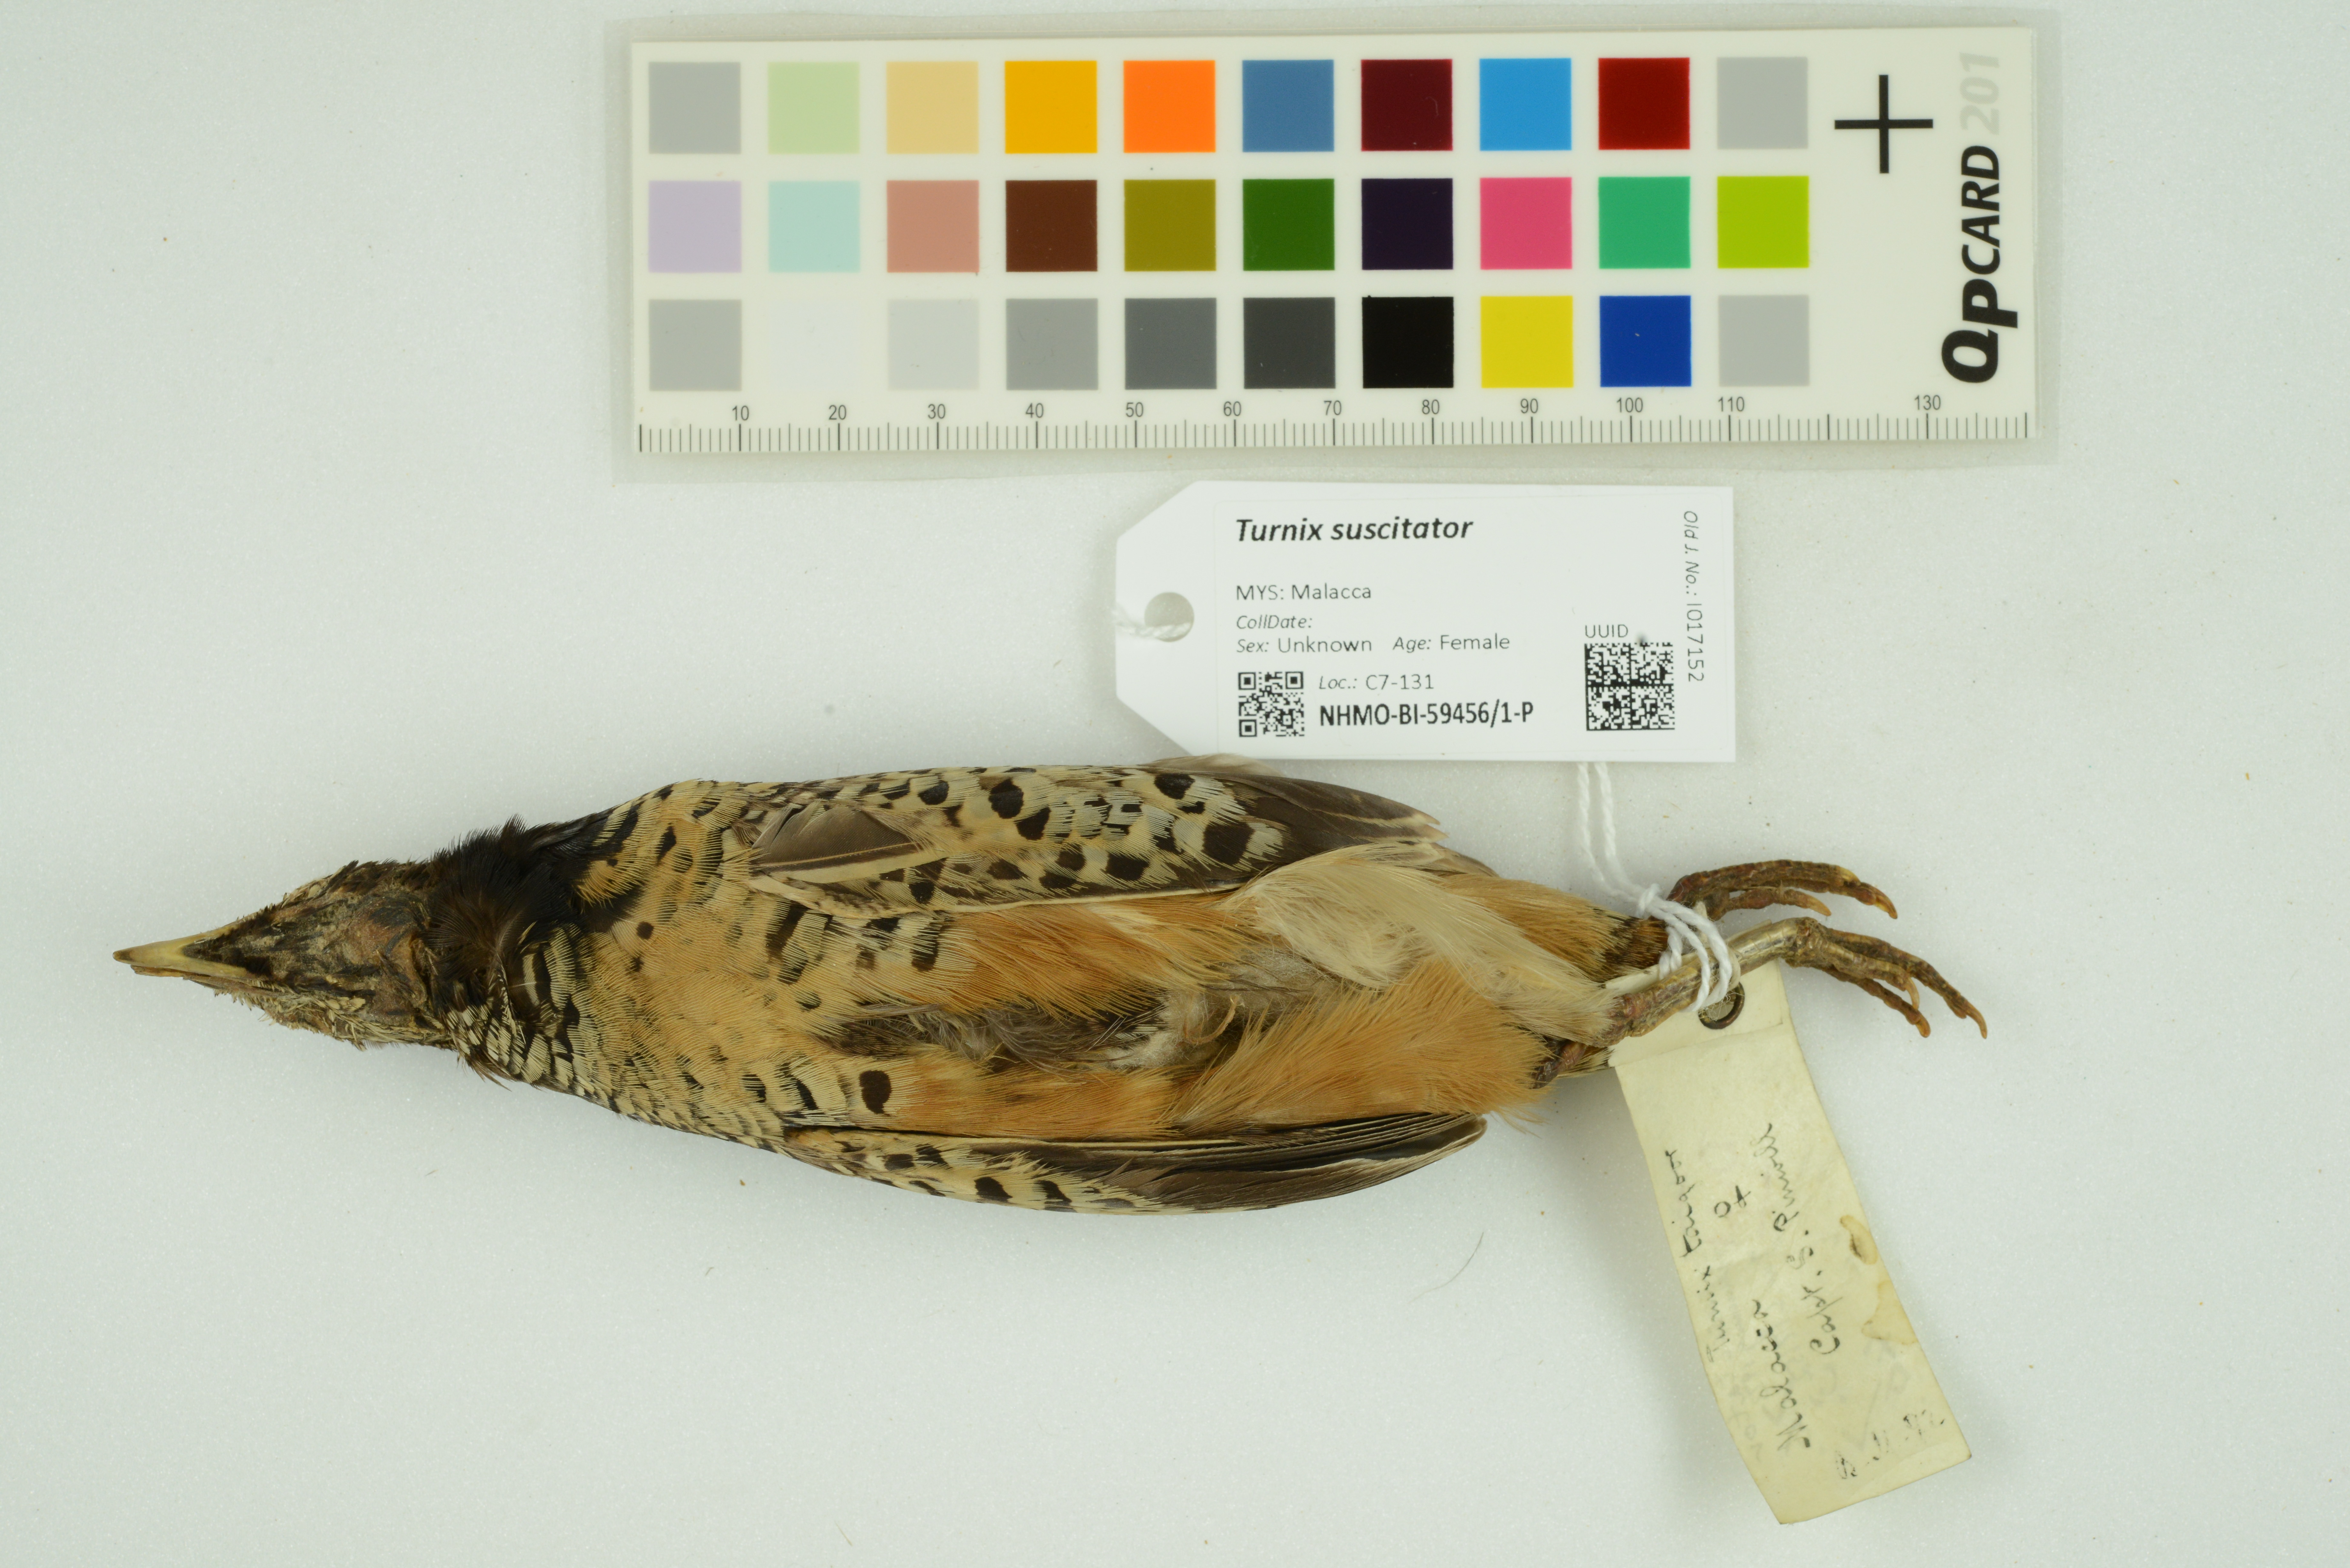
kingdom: Animalia
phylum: Chordata
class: Aves
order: Charadriiformes
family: Turnicidae
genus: Turnix
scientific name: Turnix suscitator
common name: Barred buttonquail
